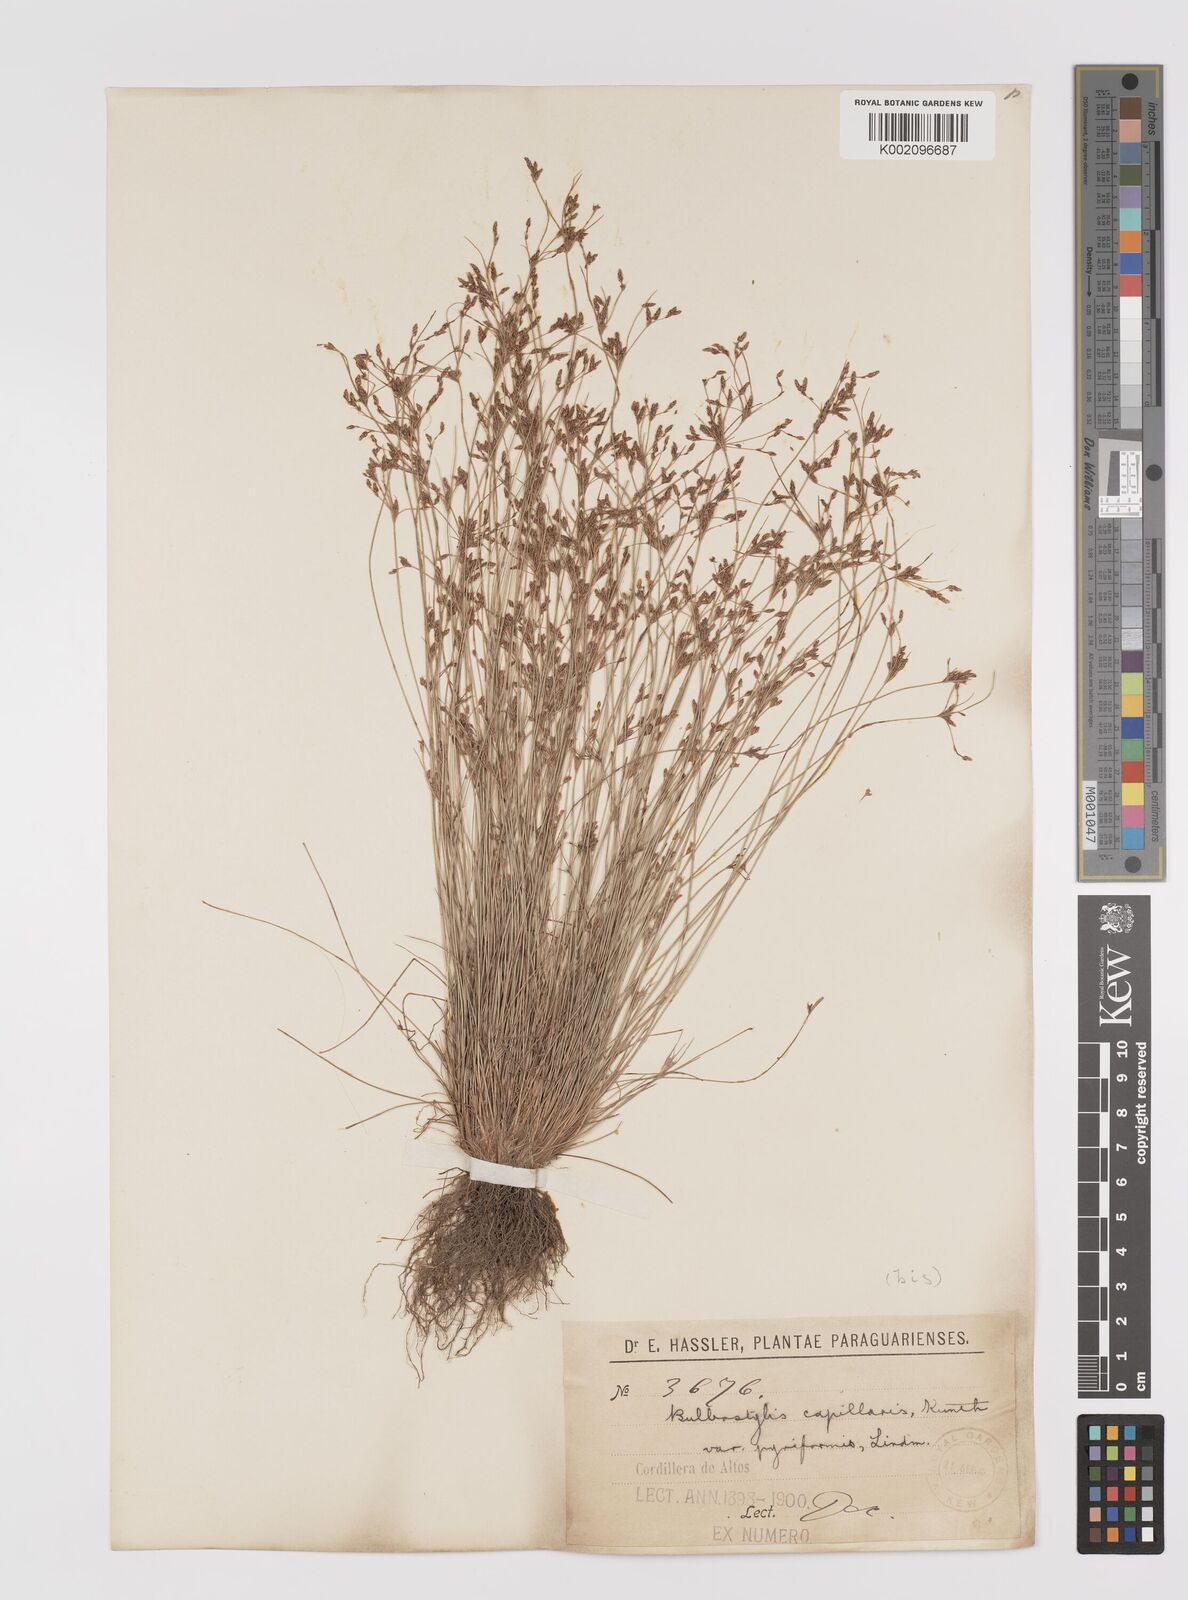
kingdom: Plantae
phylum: Tracheophyta
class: Liliopsida
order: Poales
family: Cyperaceae
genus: Bulbostylis
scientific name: Bulbostylis capillaris
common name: Densetuft hairsedge
